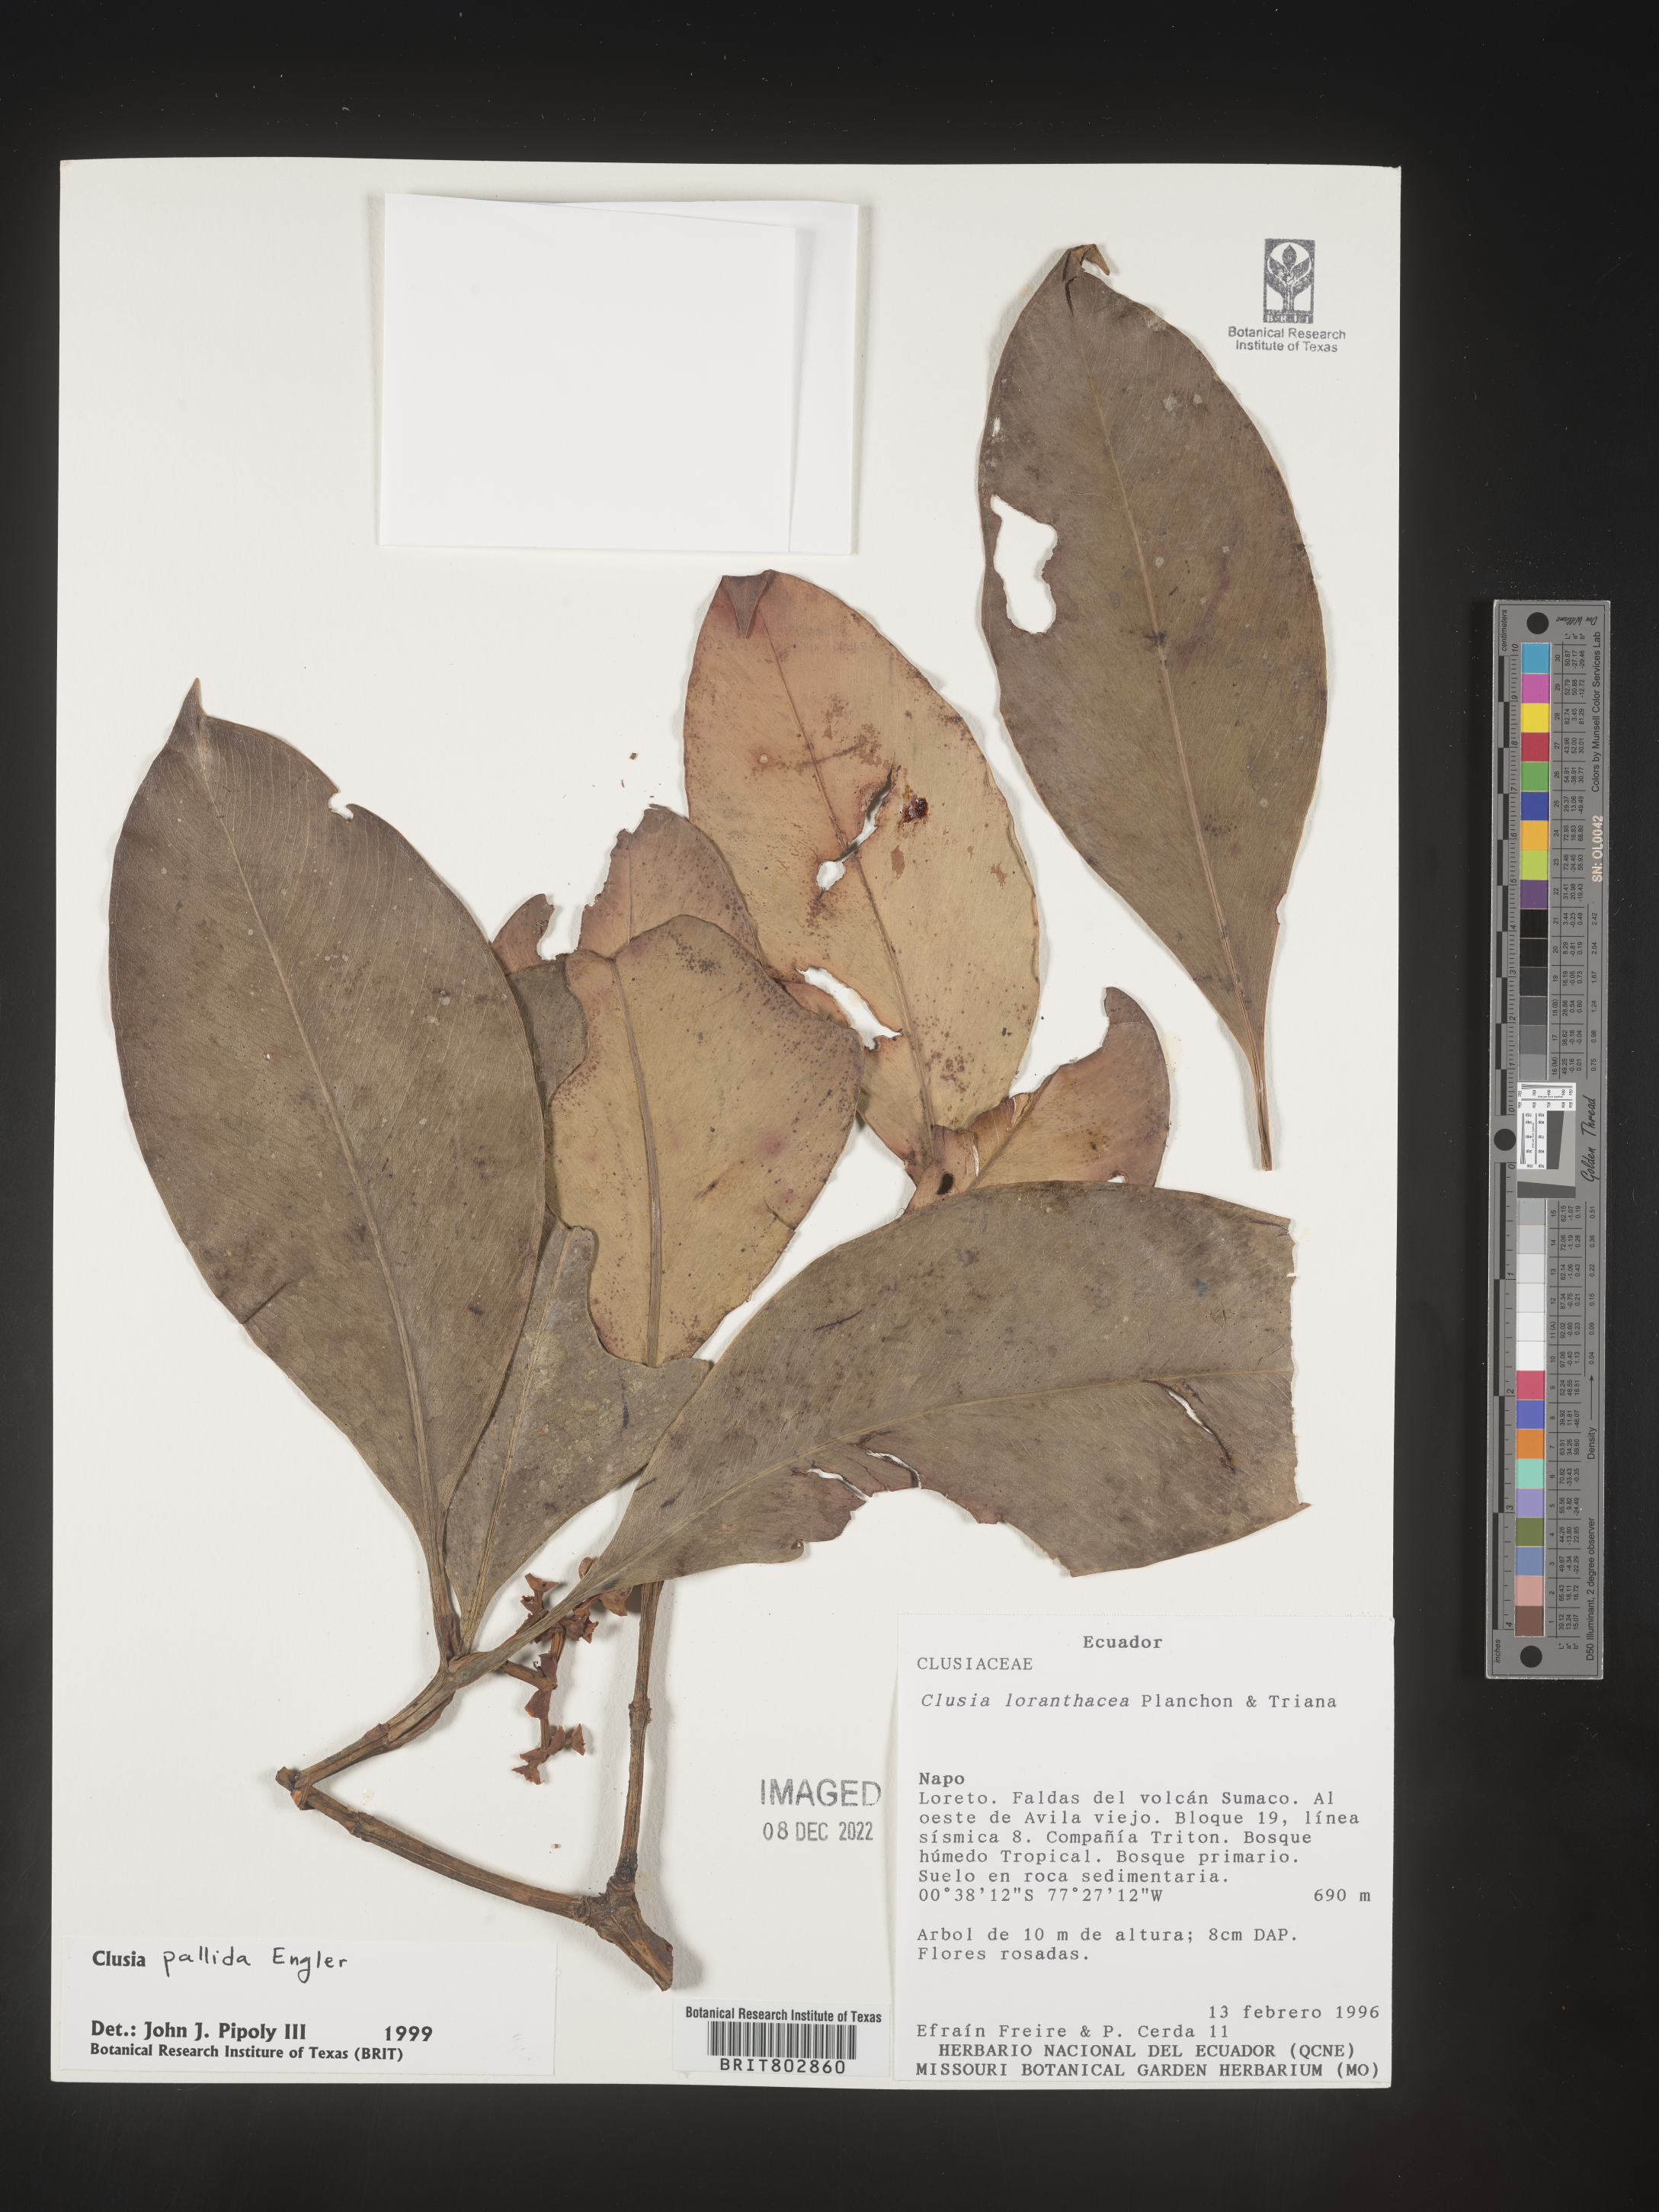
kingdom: Plantae
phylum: Tracheophyta
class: Magnoliopsida
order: Malpighiales
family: Clusiaceae
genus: Clusia
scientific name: Clusia
